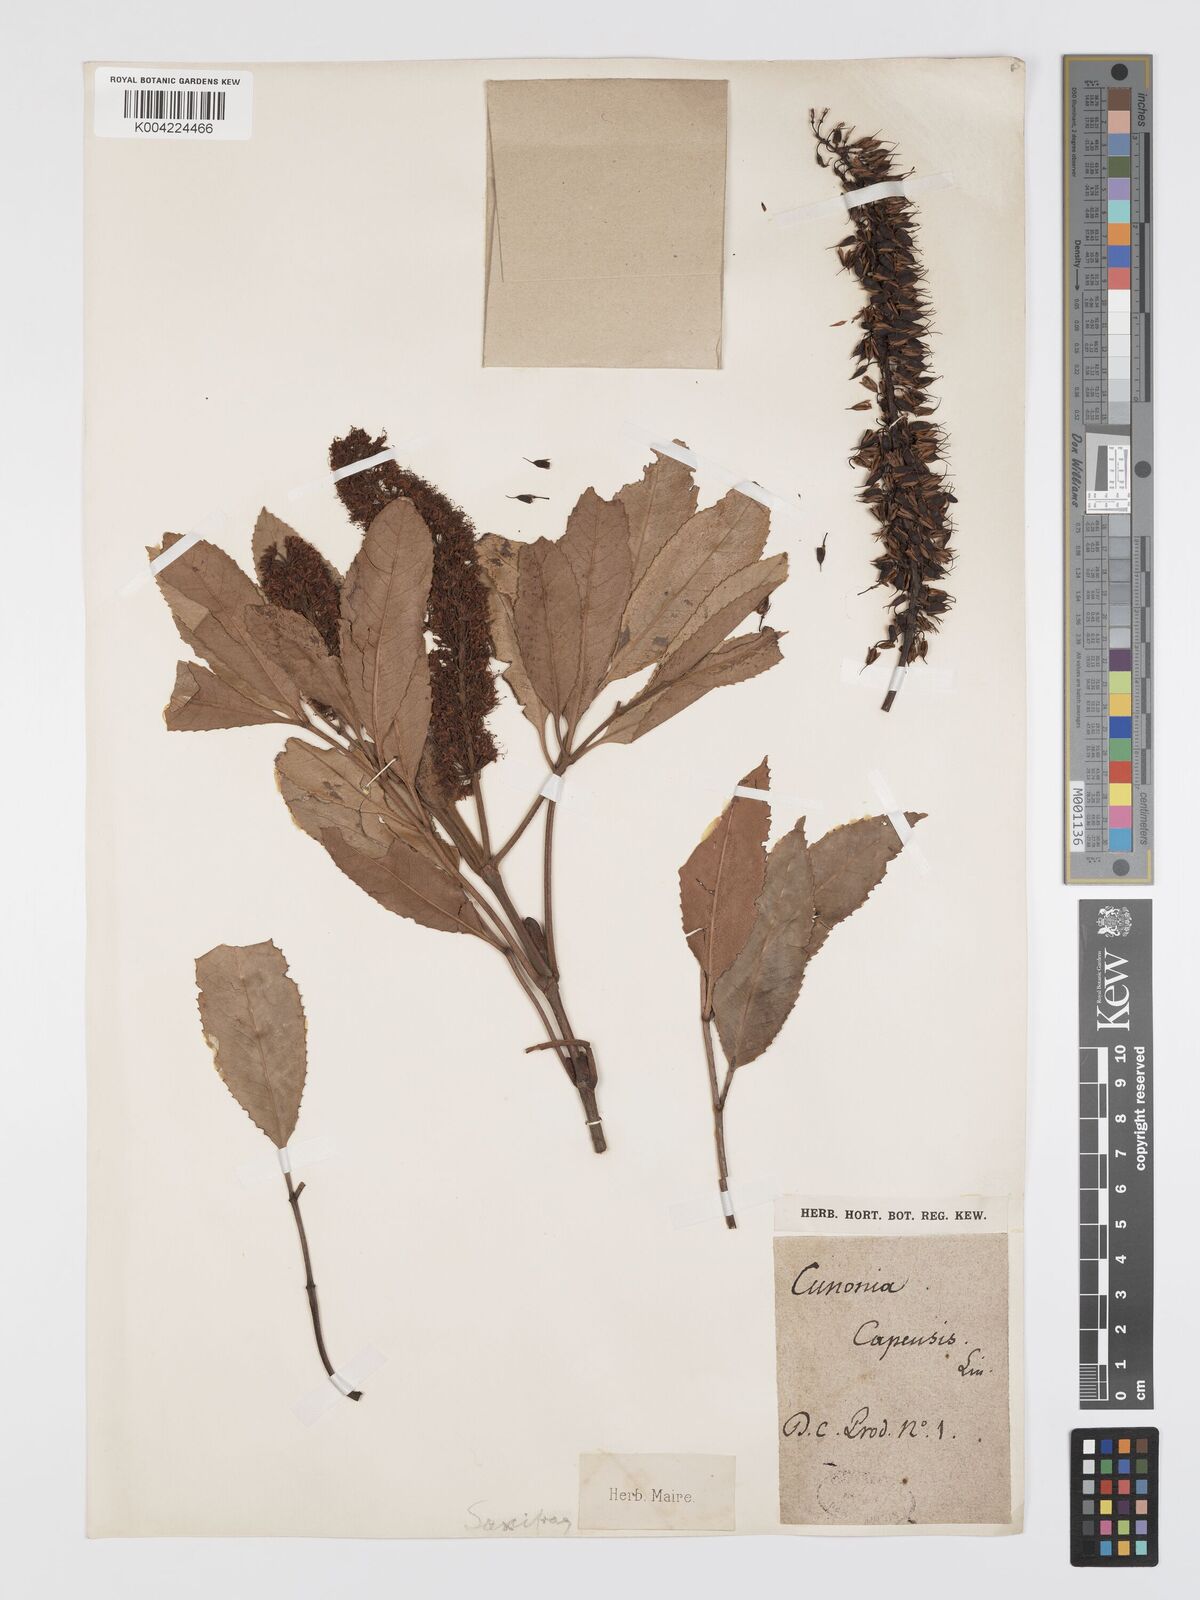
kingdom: Plantae
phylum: Tracheophyta
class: Magnoliopsida
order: Oxalidales
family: Cunoniaceae
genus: Cunonia
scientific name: Cunonia capensis
